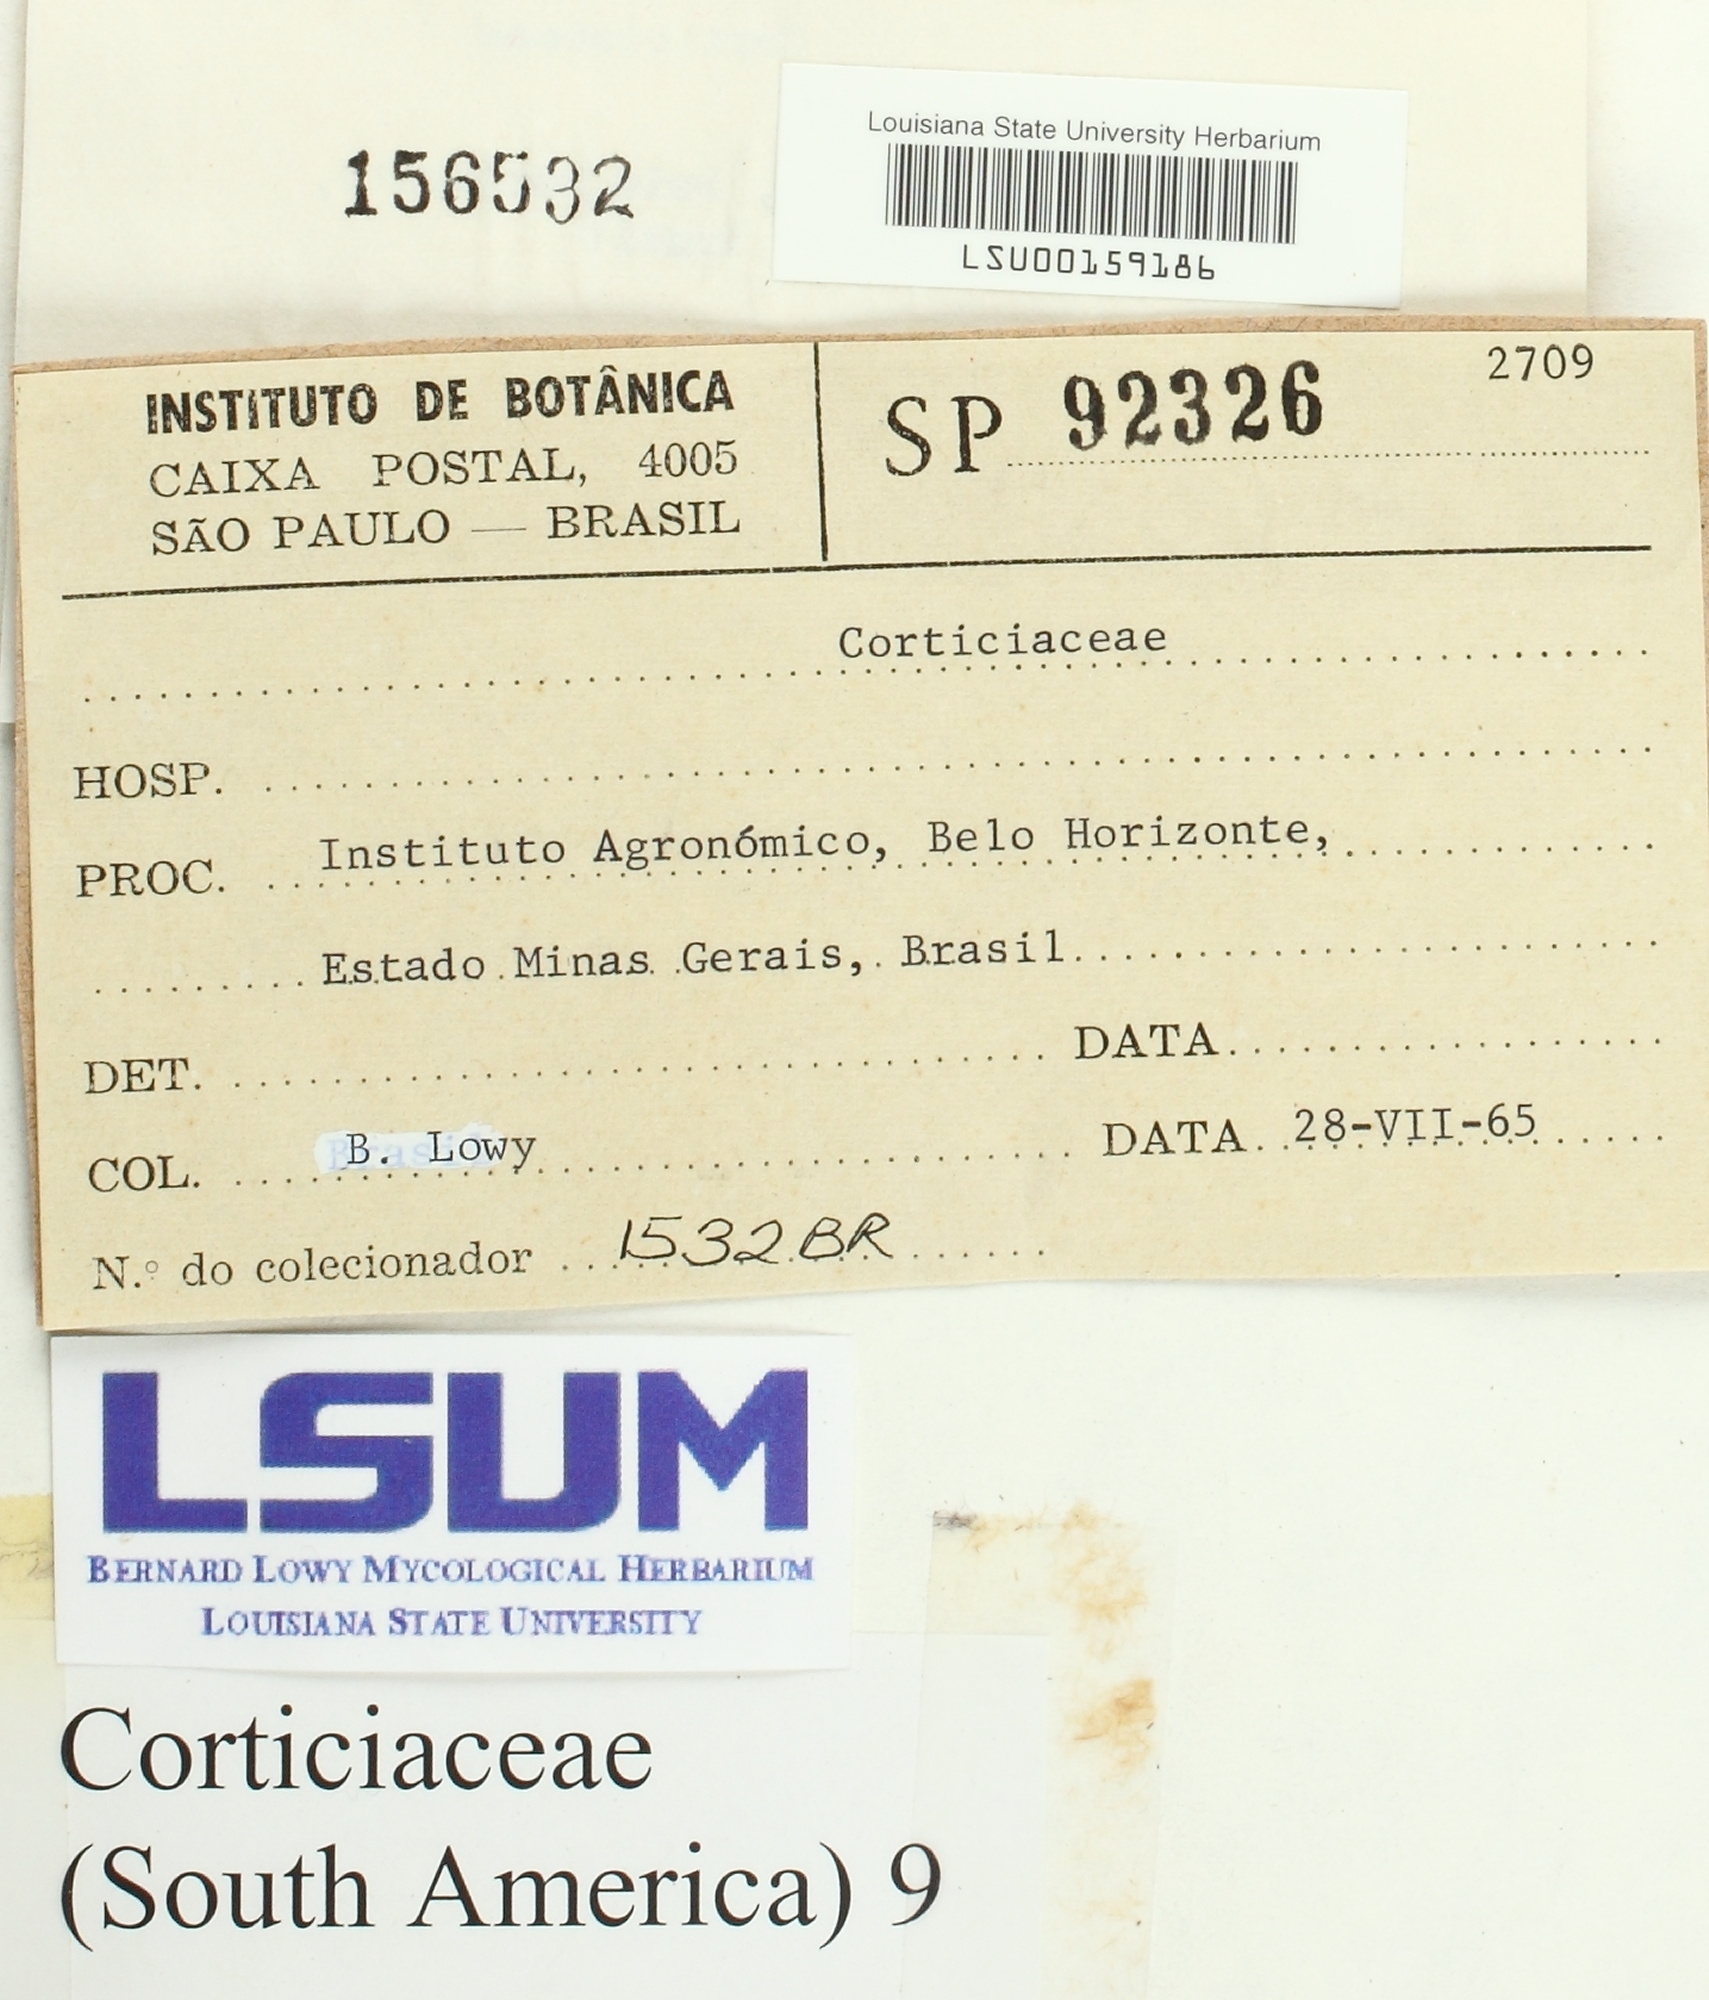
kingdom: Fungi
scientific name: Fungi
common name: Fungi
